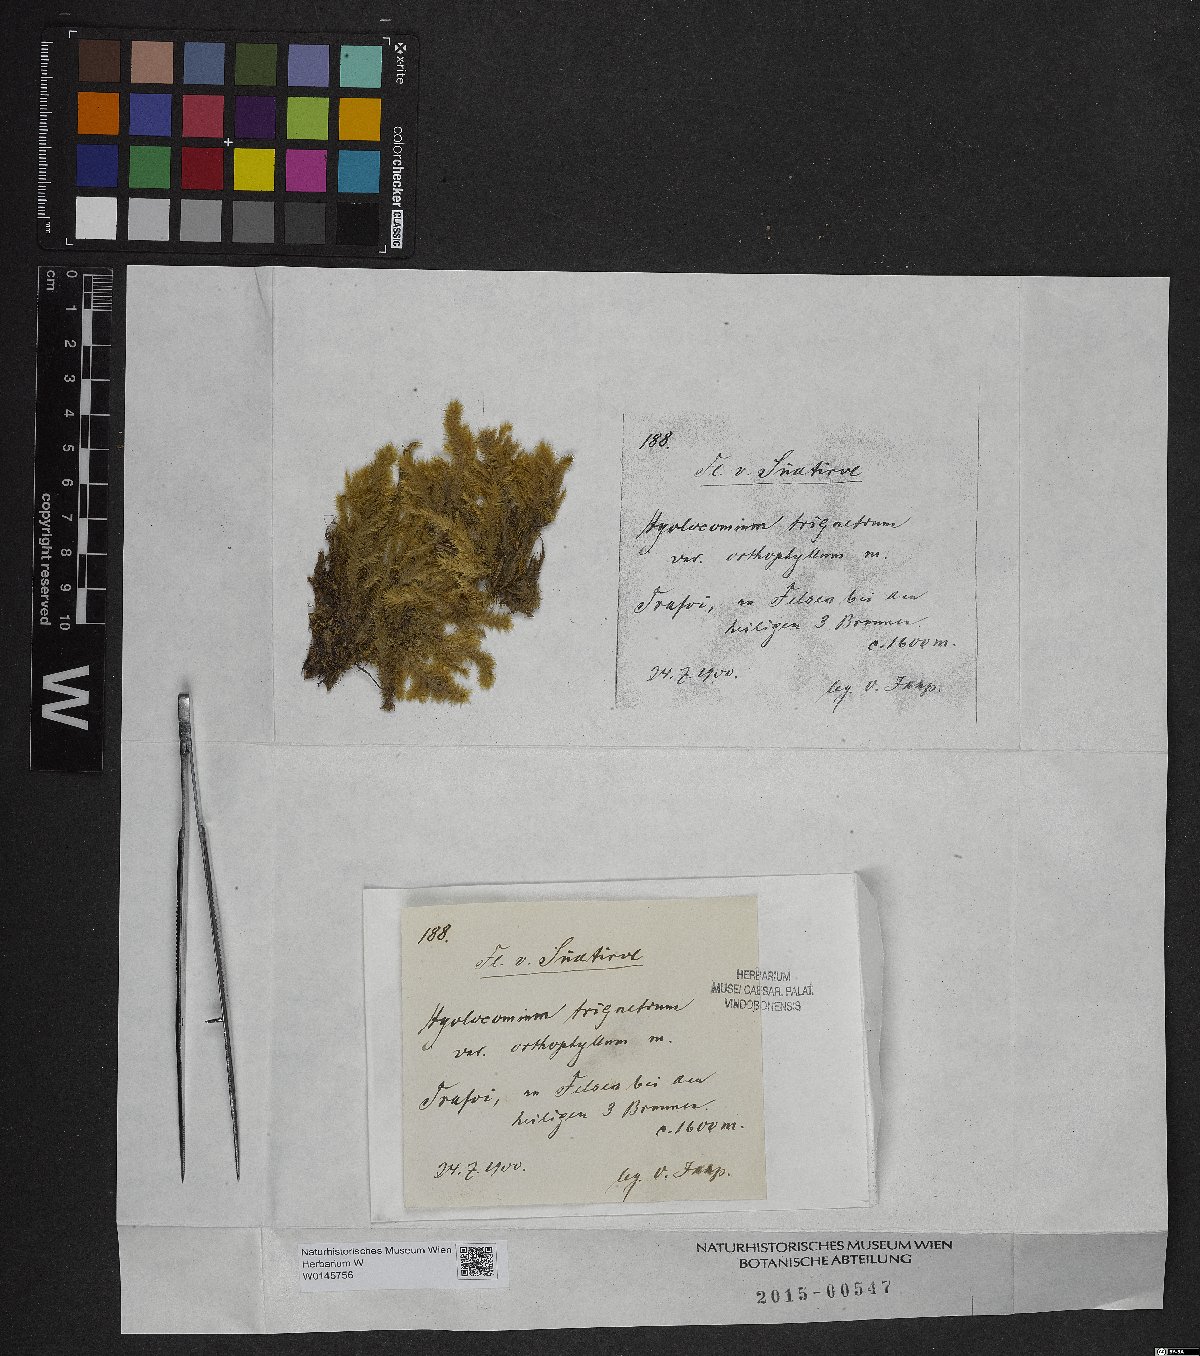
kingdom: Plantae
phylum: Bryophyta
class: Bryopsida
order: Hypnales
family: Hylocomiaceae
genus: Hylocomiadelphus
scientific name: Hylocomiadelphus triquetrus
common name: Rough goose neck moss
